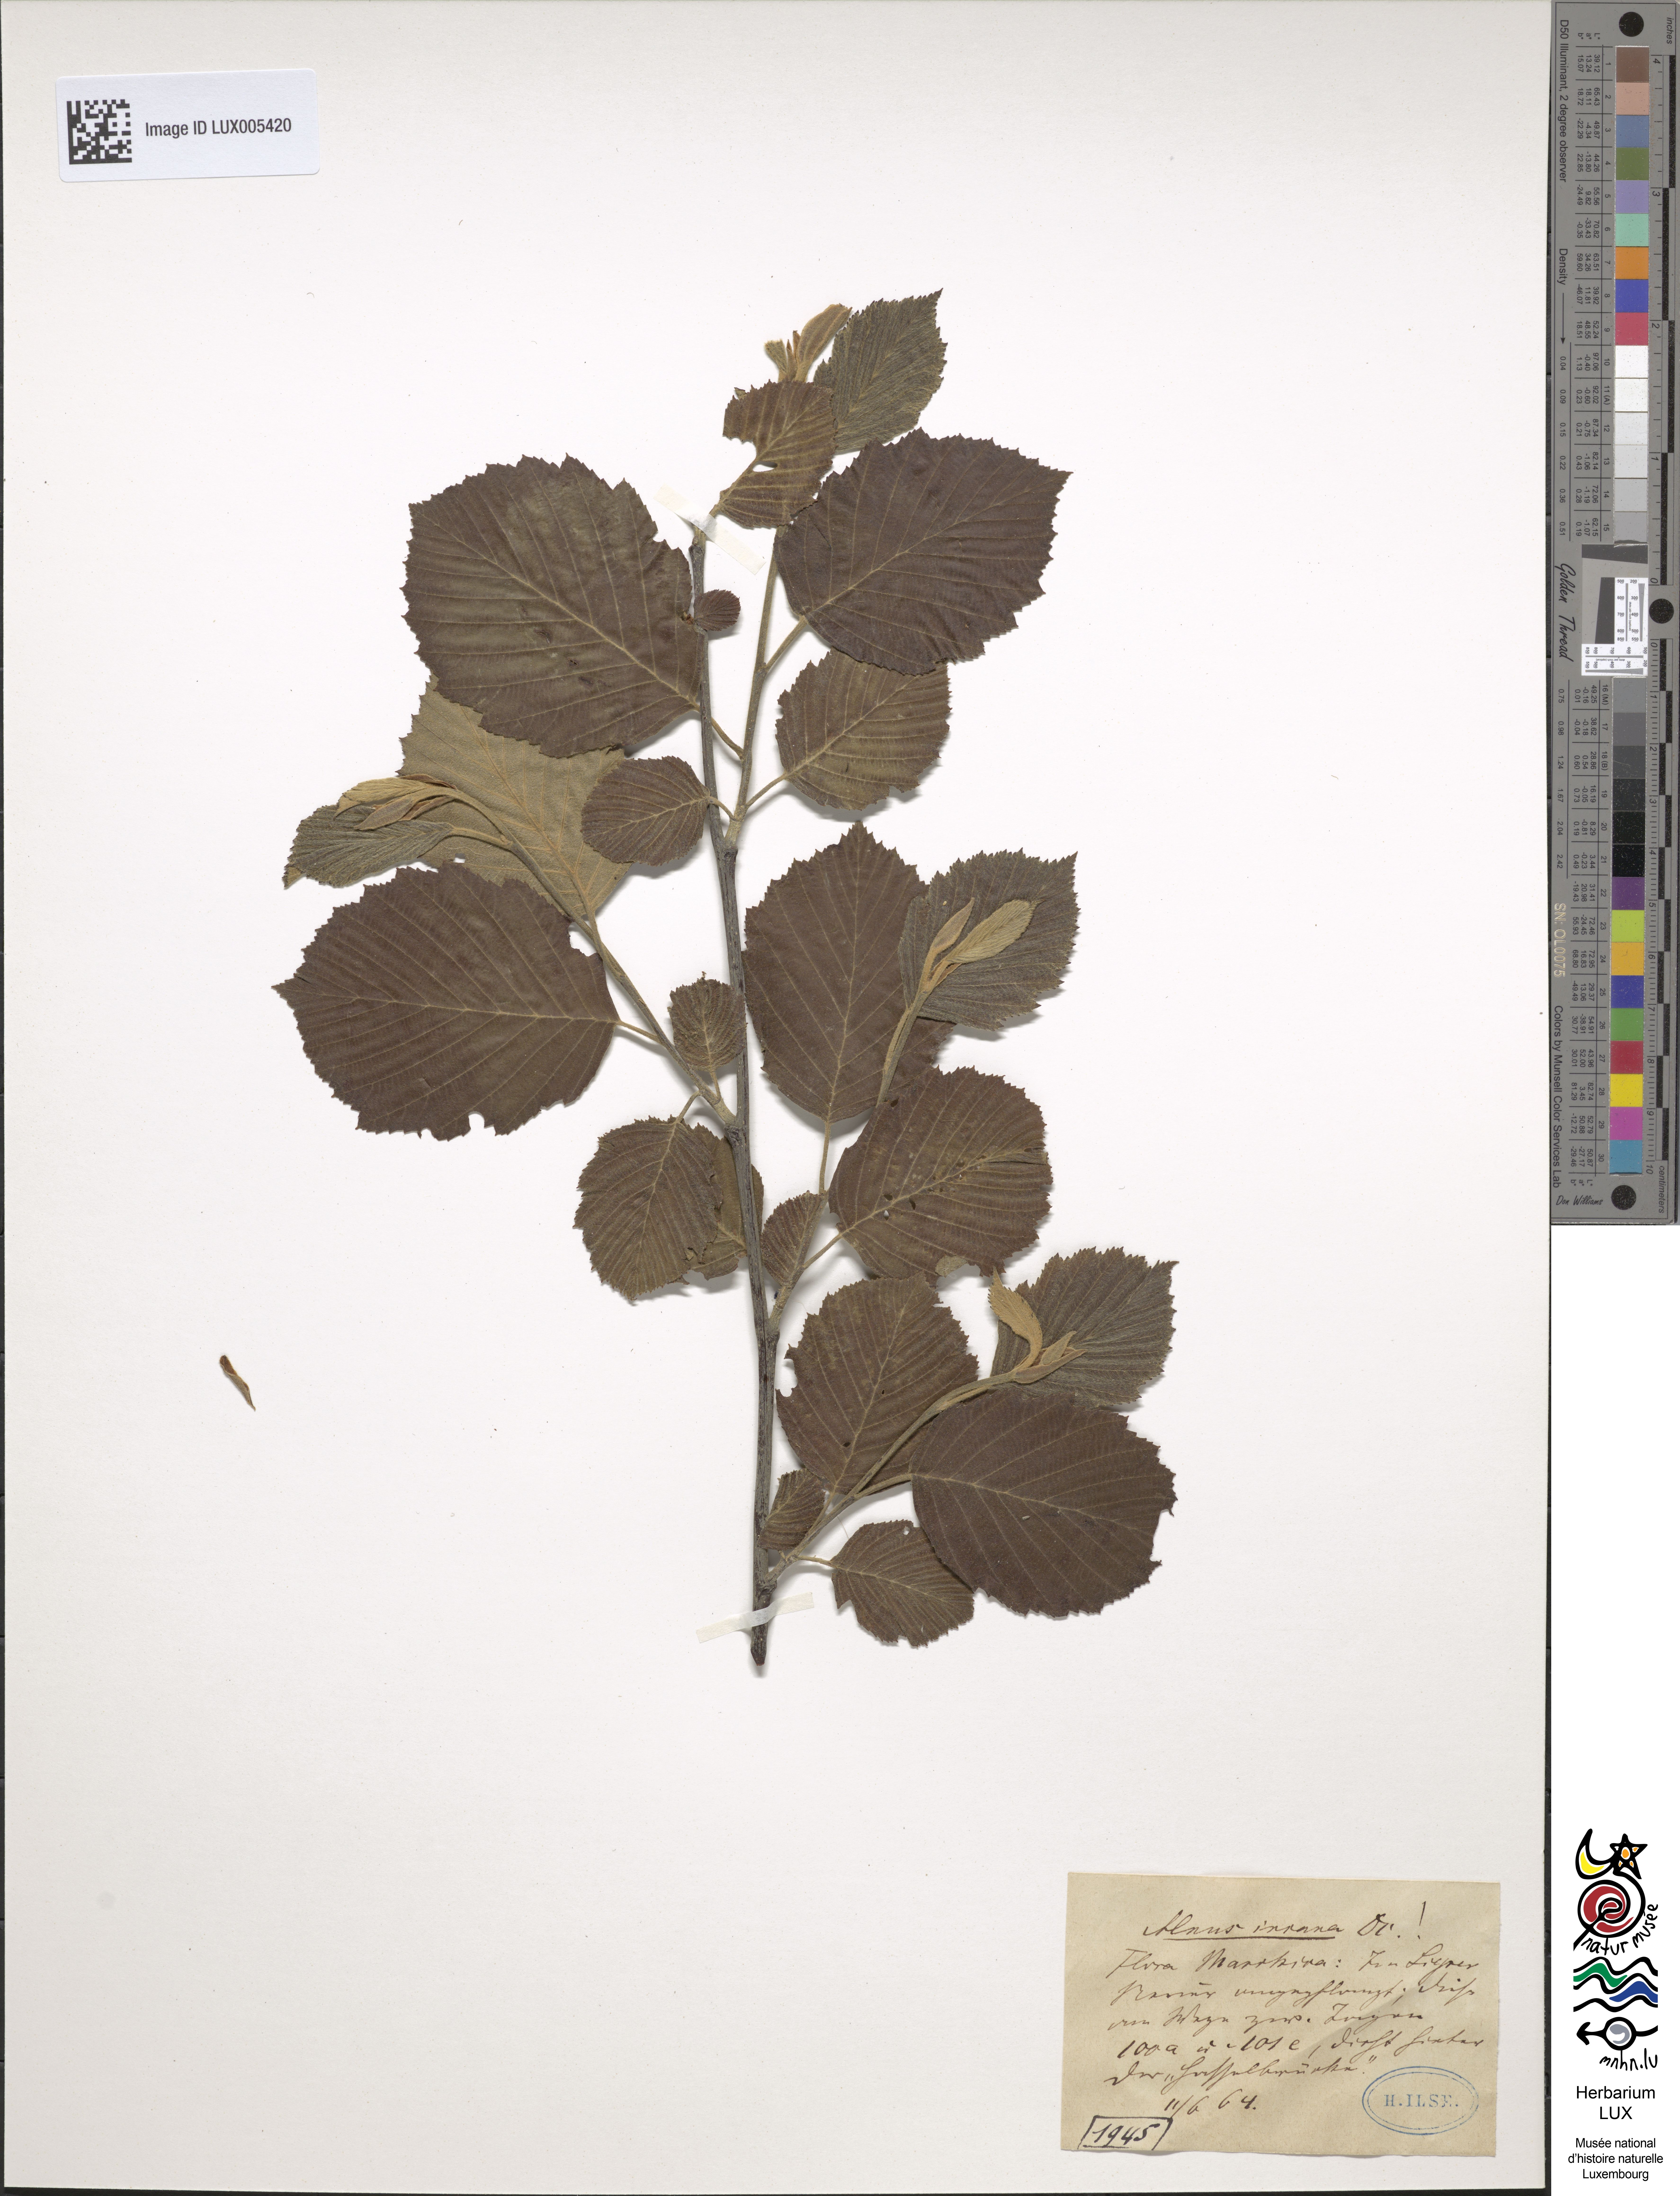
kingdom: Plantae
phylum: Tracheophyta
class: Magnoliopsida
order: Fagales
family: Betulaceae
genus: Alnus
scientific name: Alnus incana
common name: Grey alder
